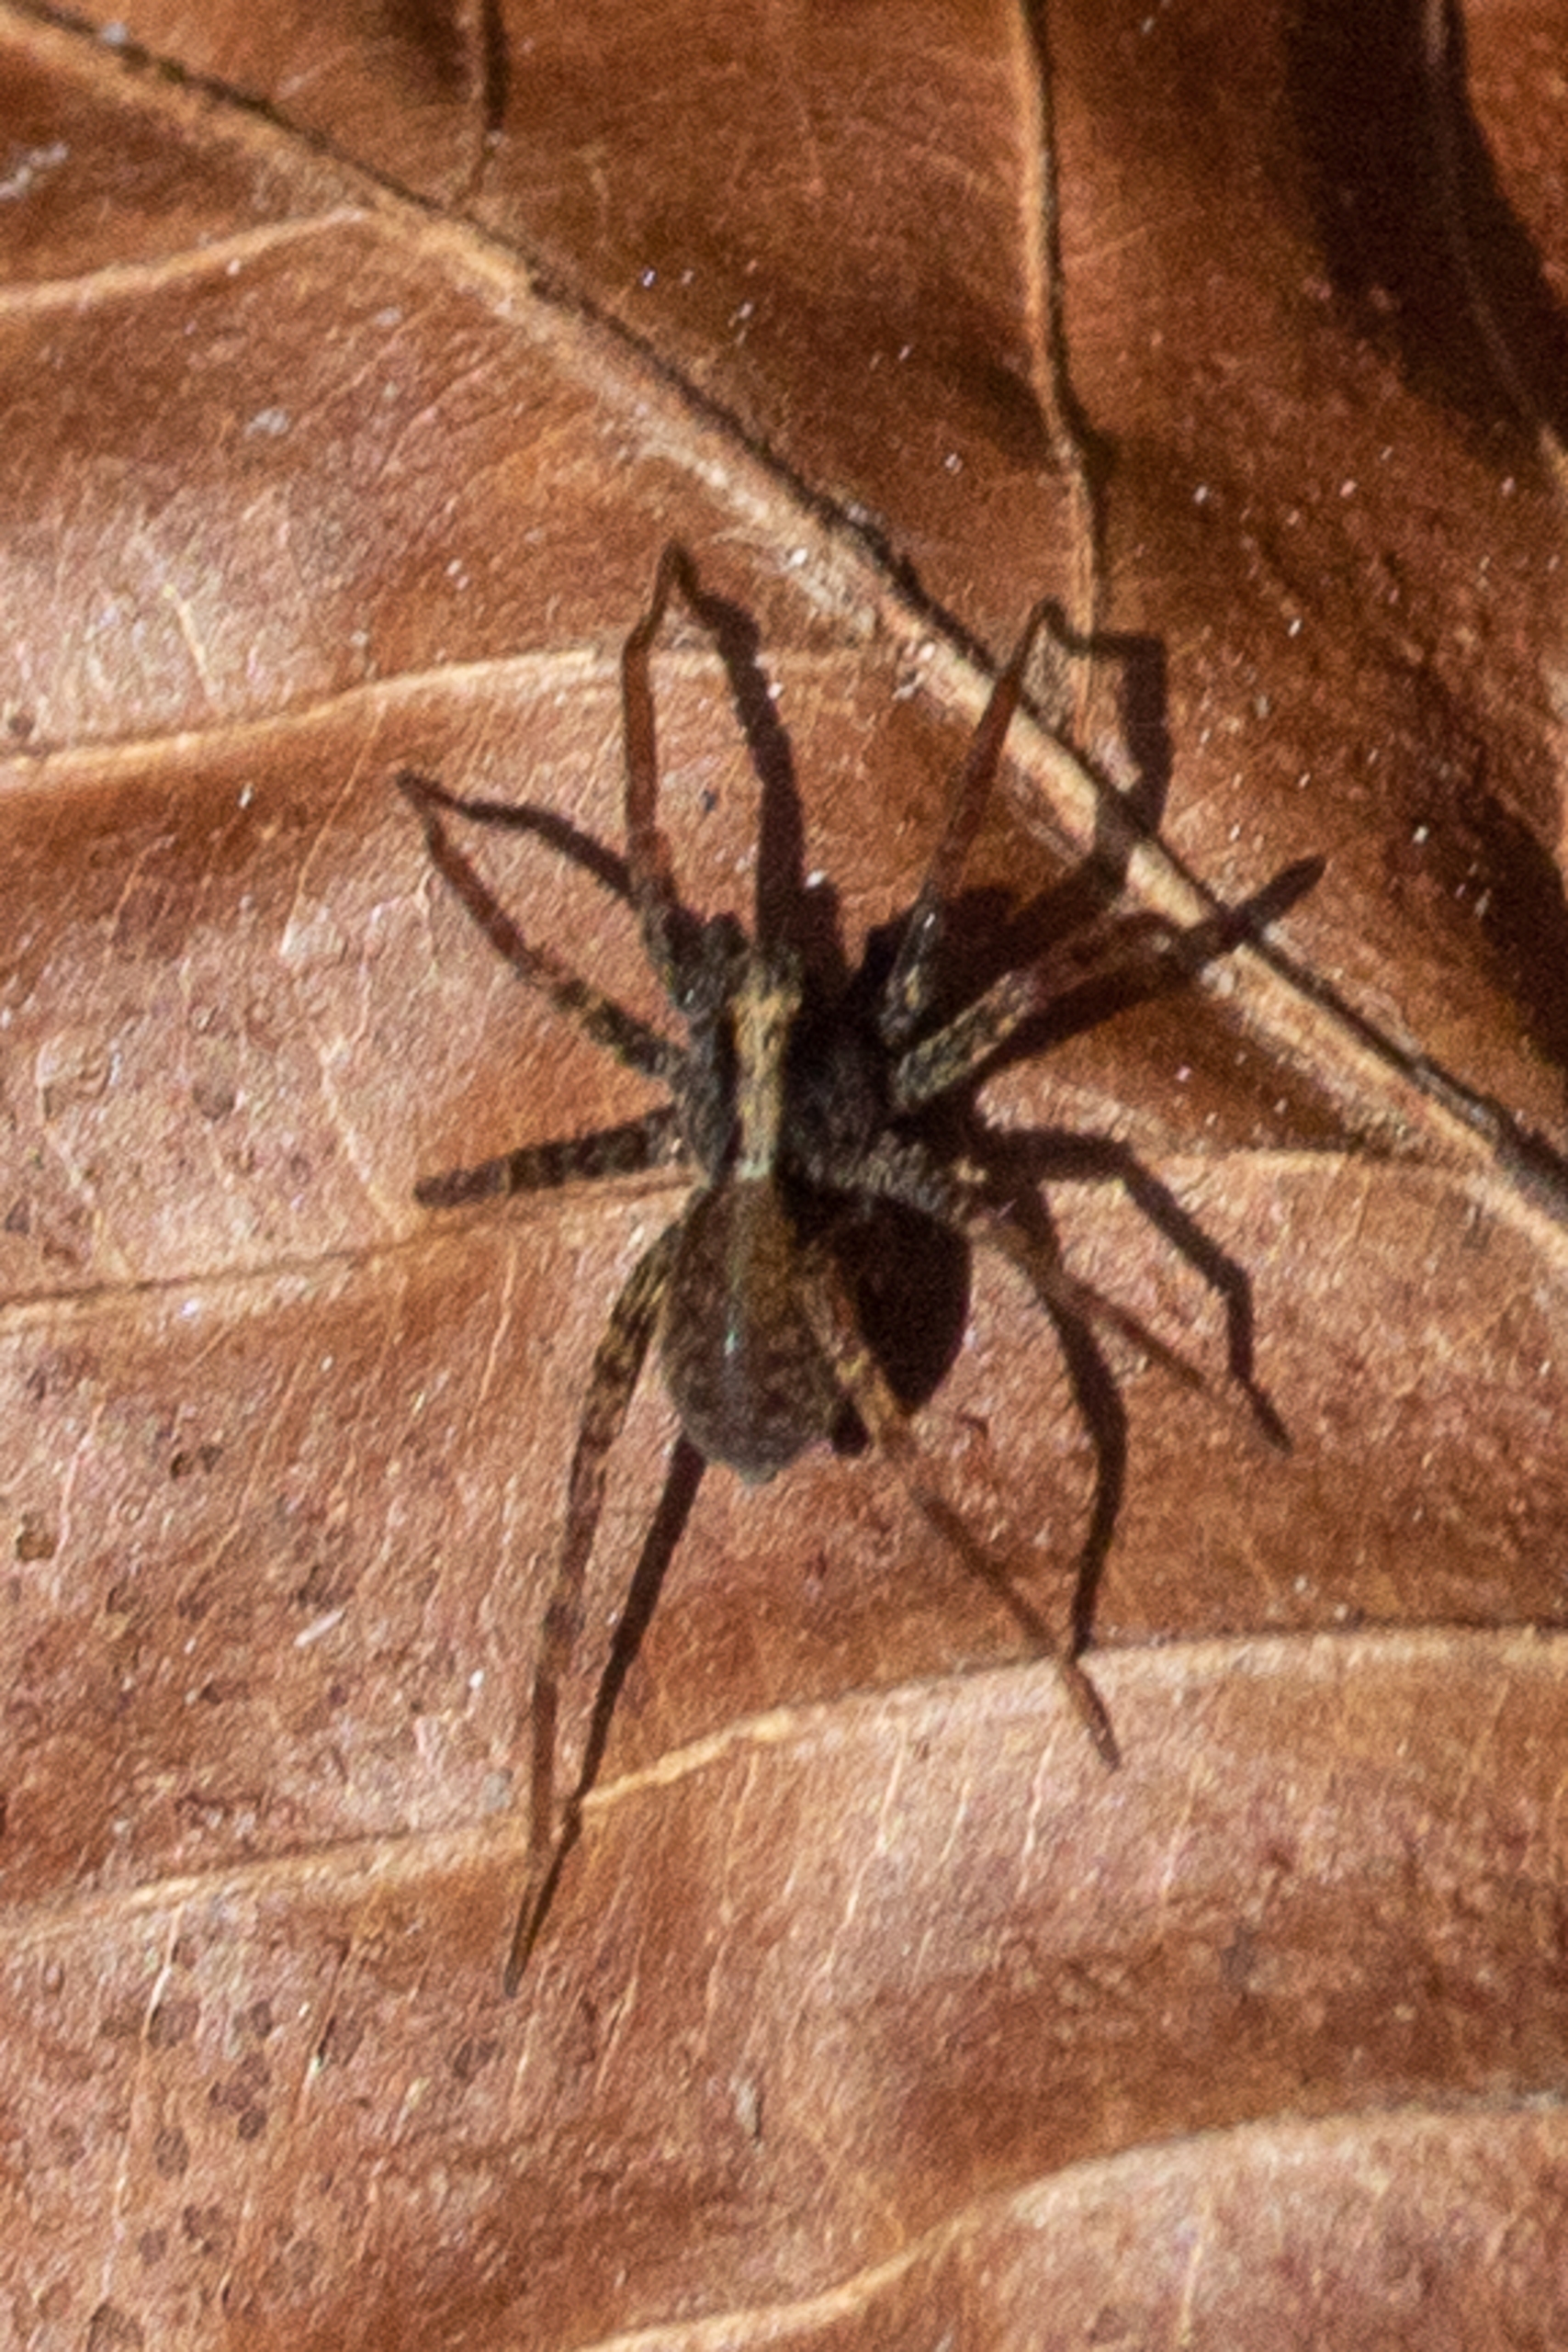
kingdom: Animalia
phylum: Arthropoda
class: Arachnida
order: Araneae
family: Lycosidae
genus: Pardosa
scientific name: Pardosa
